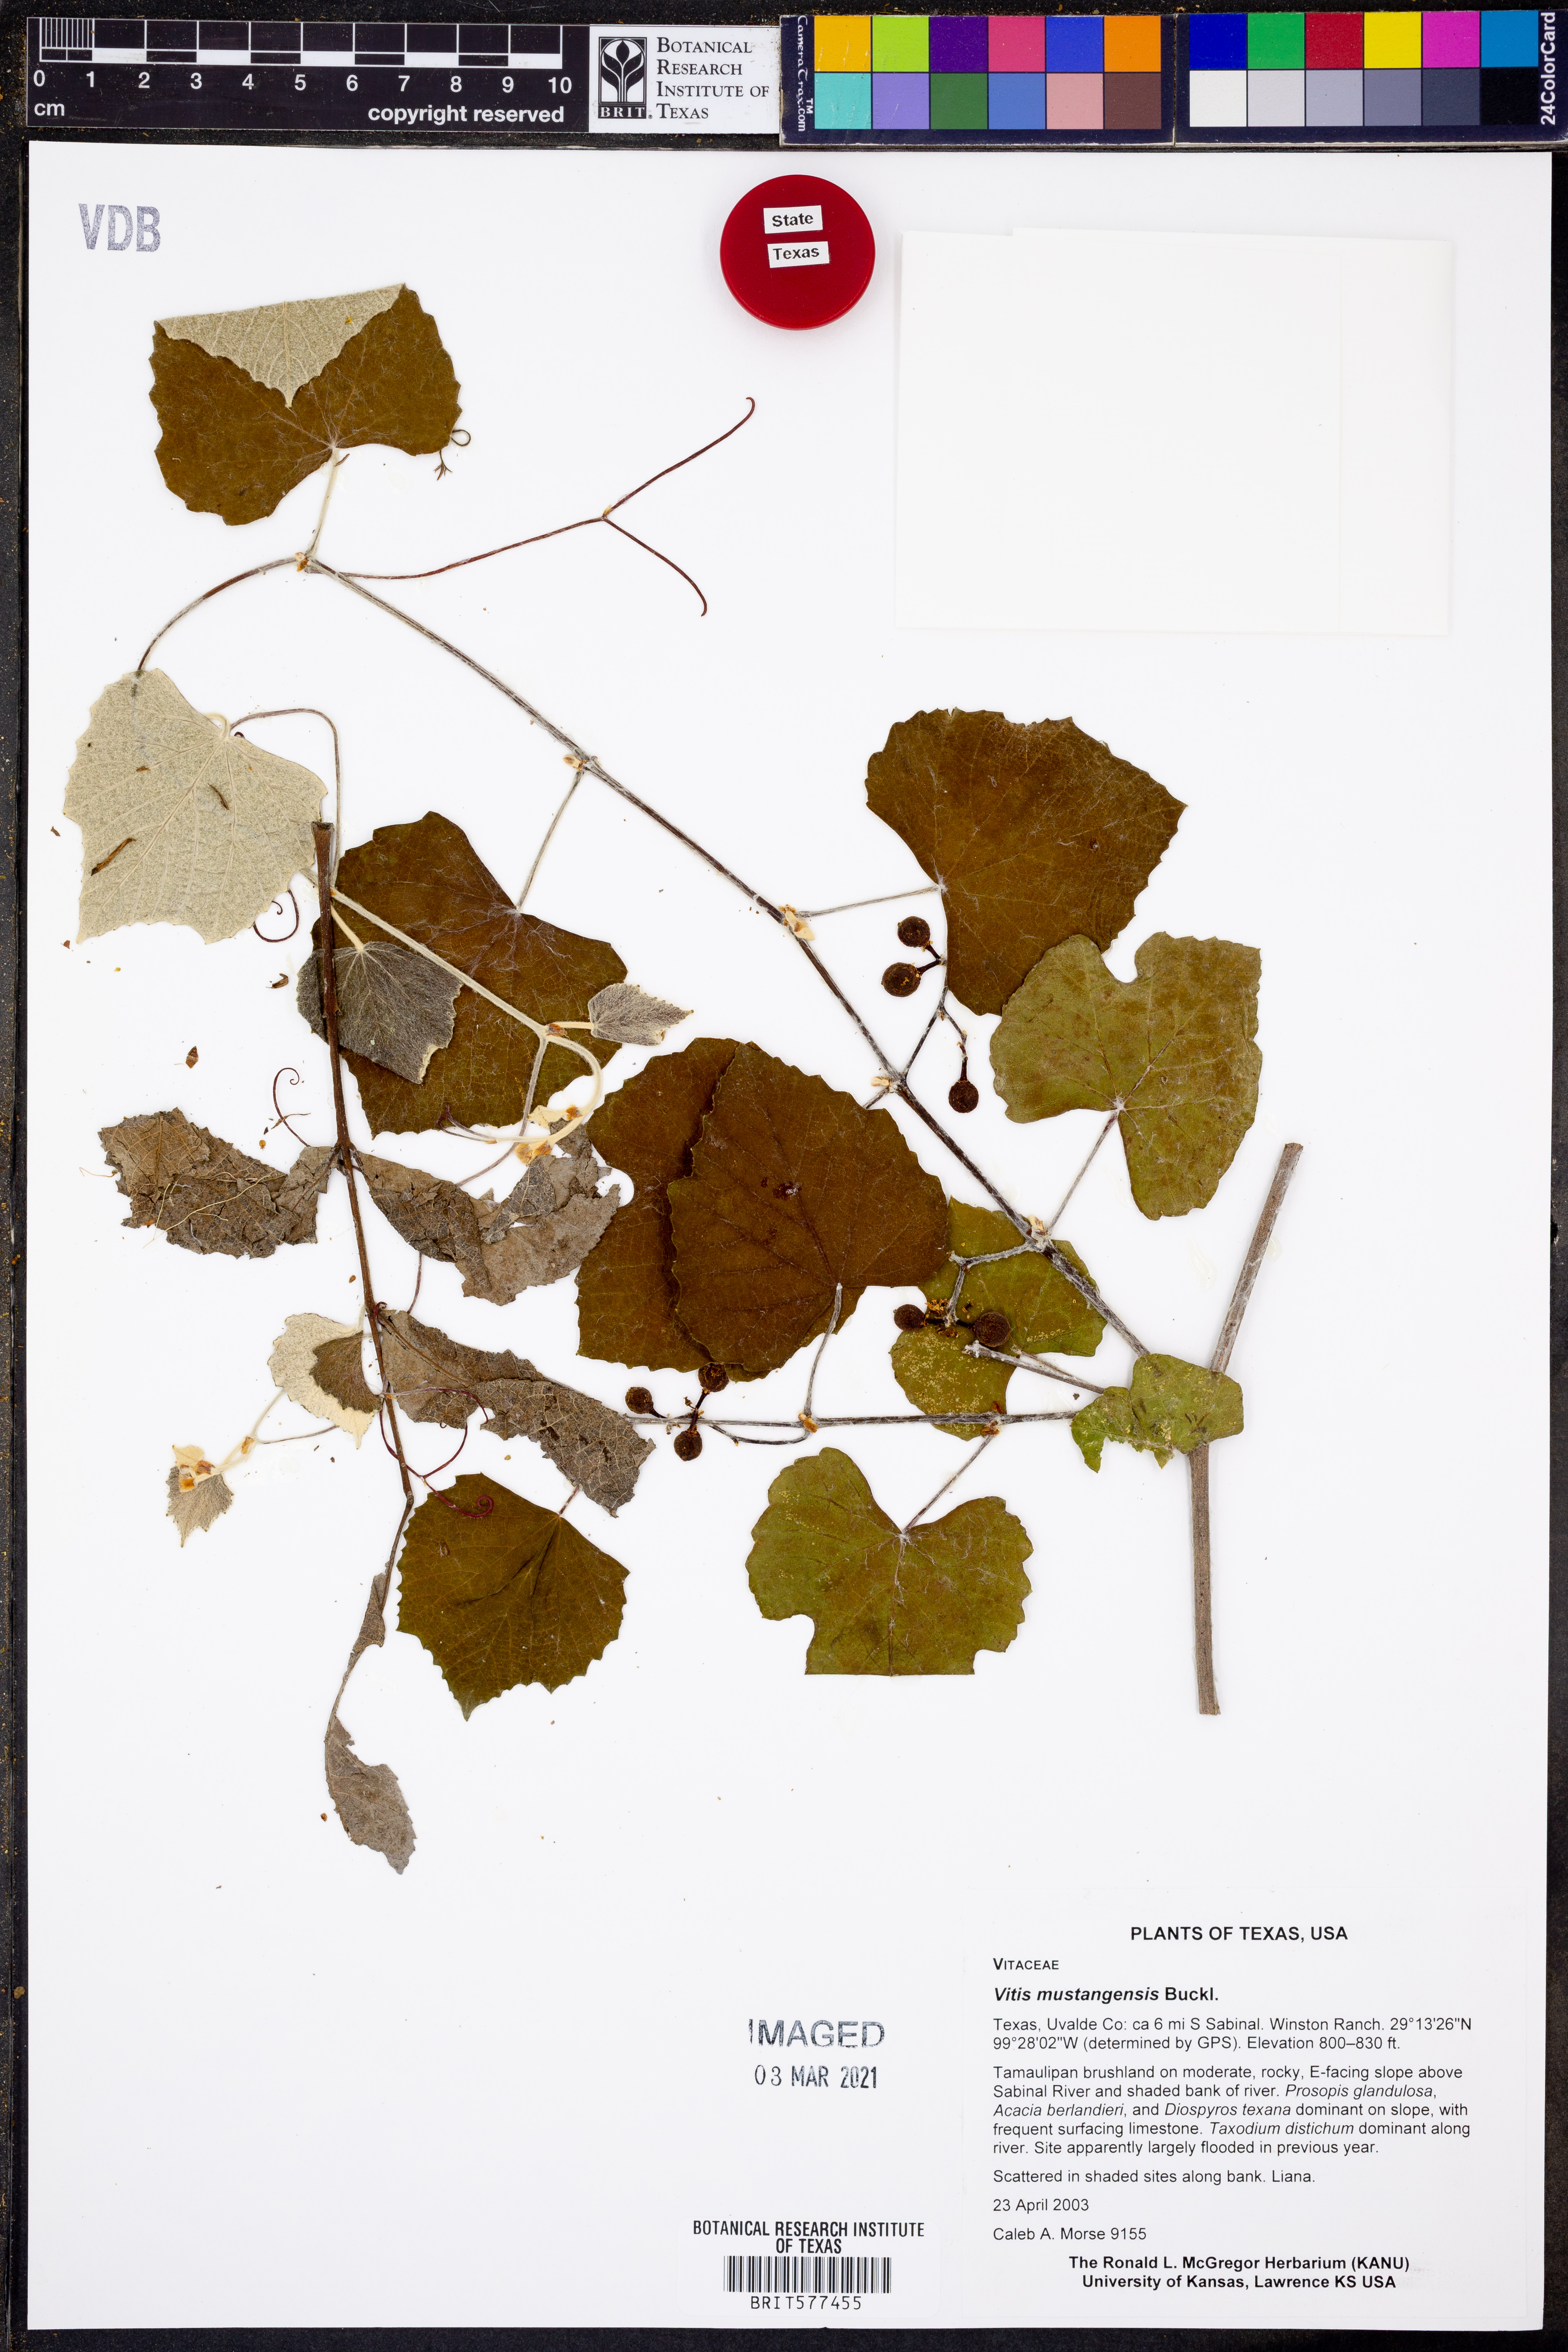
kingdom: Plantae
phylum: Tracheophyta
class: Magnoliopsida
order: Vitales
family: Vitaceae
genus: Vitis
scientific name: Vitis mustangensis
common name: Mustang grape
